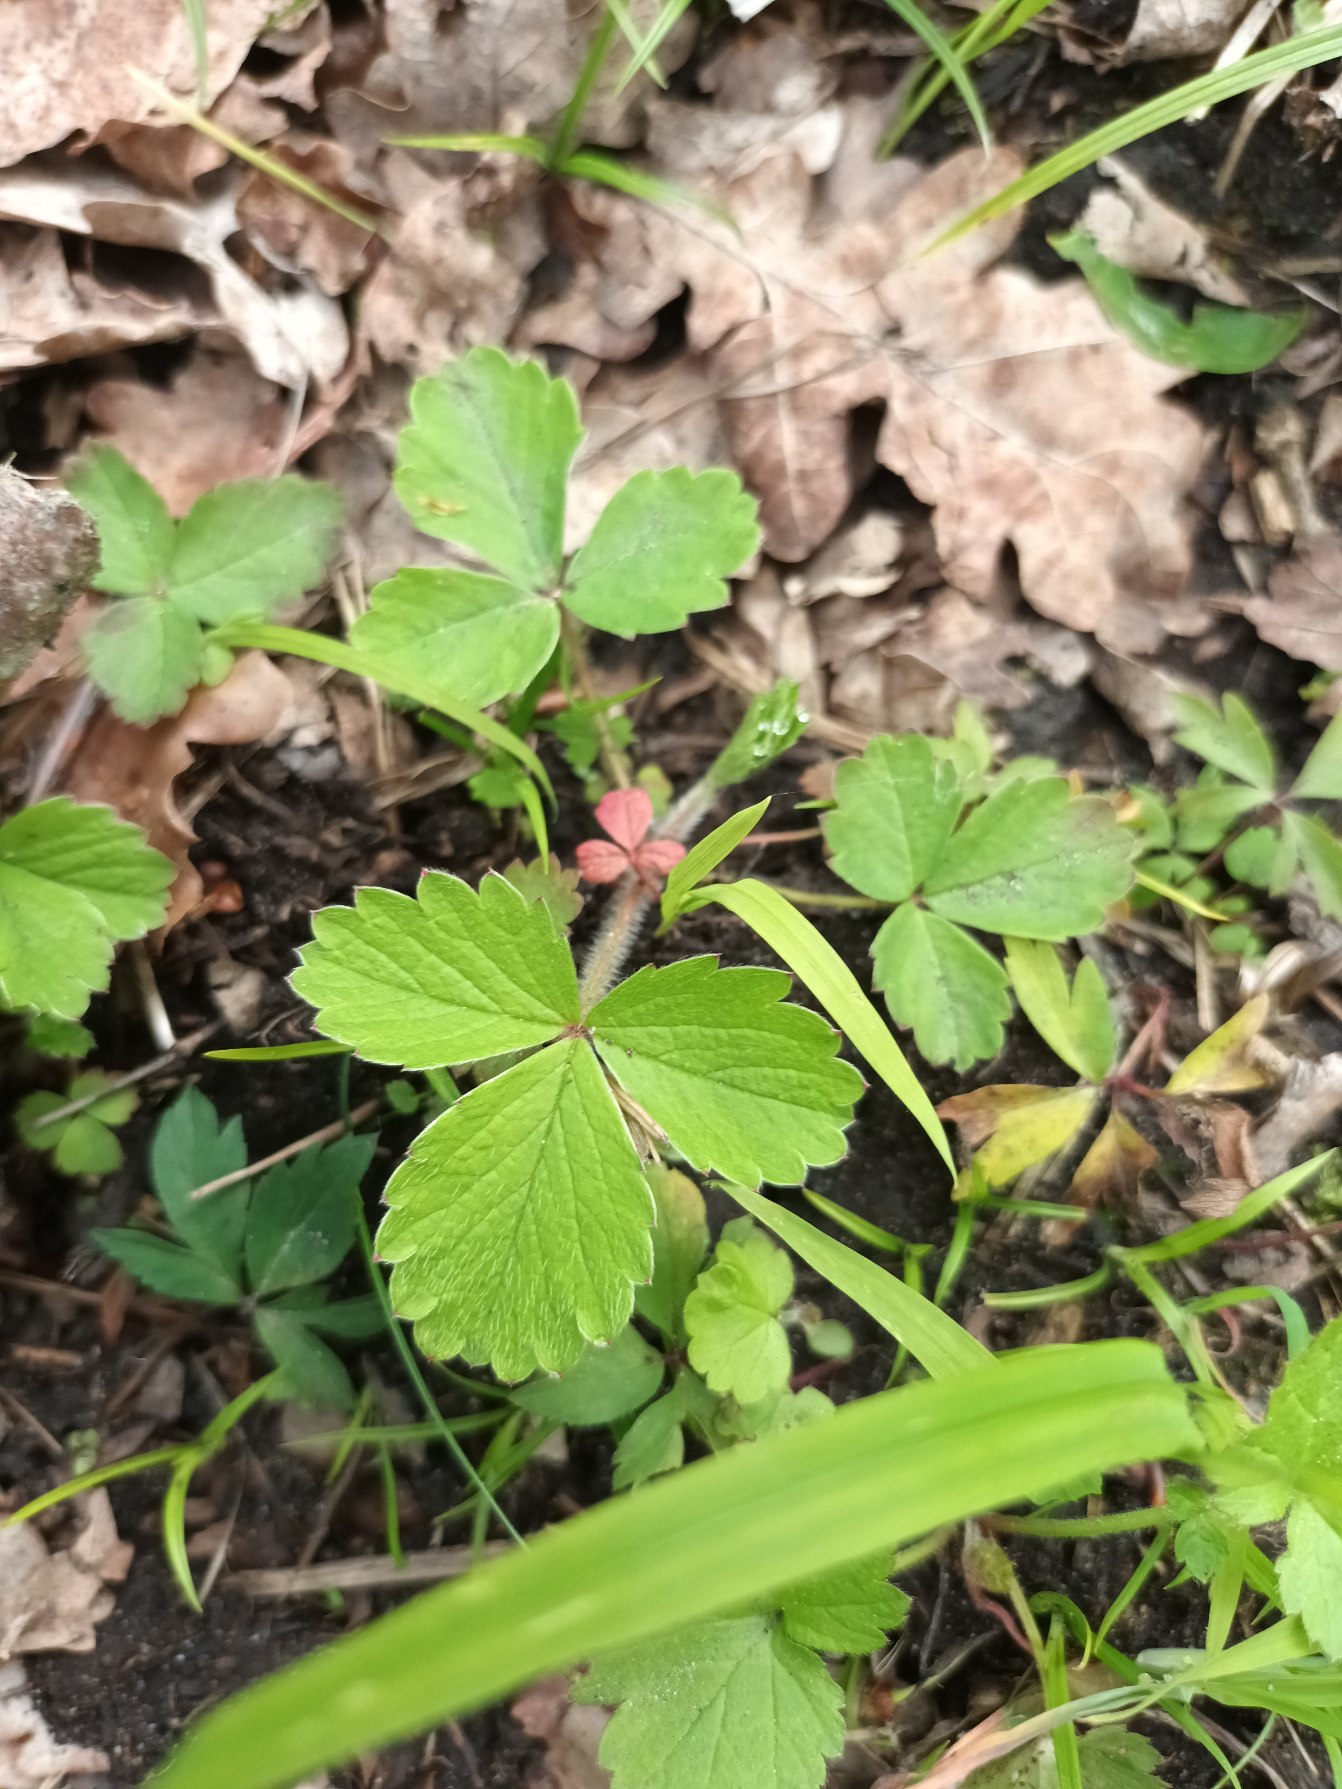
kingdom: Plantae
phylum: Tracheophyta
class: Magnoliopsida
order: Rosales
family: Rosaceae
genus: Potentilla
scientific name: Potentilla sterilis
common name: Jordbær-potentil
